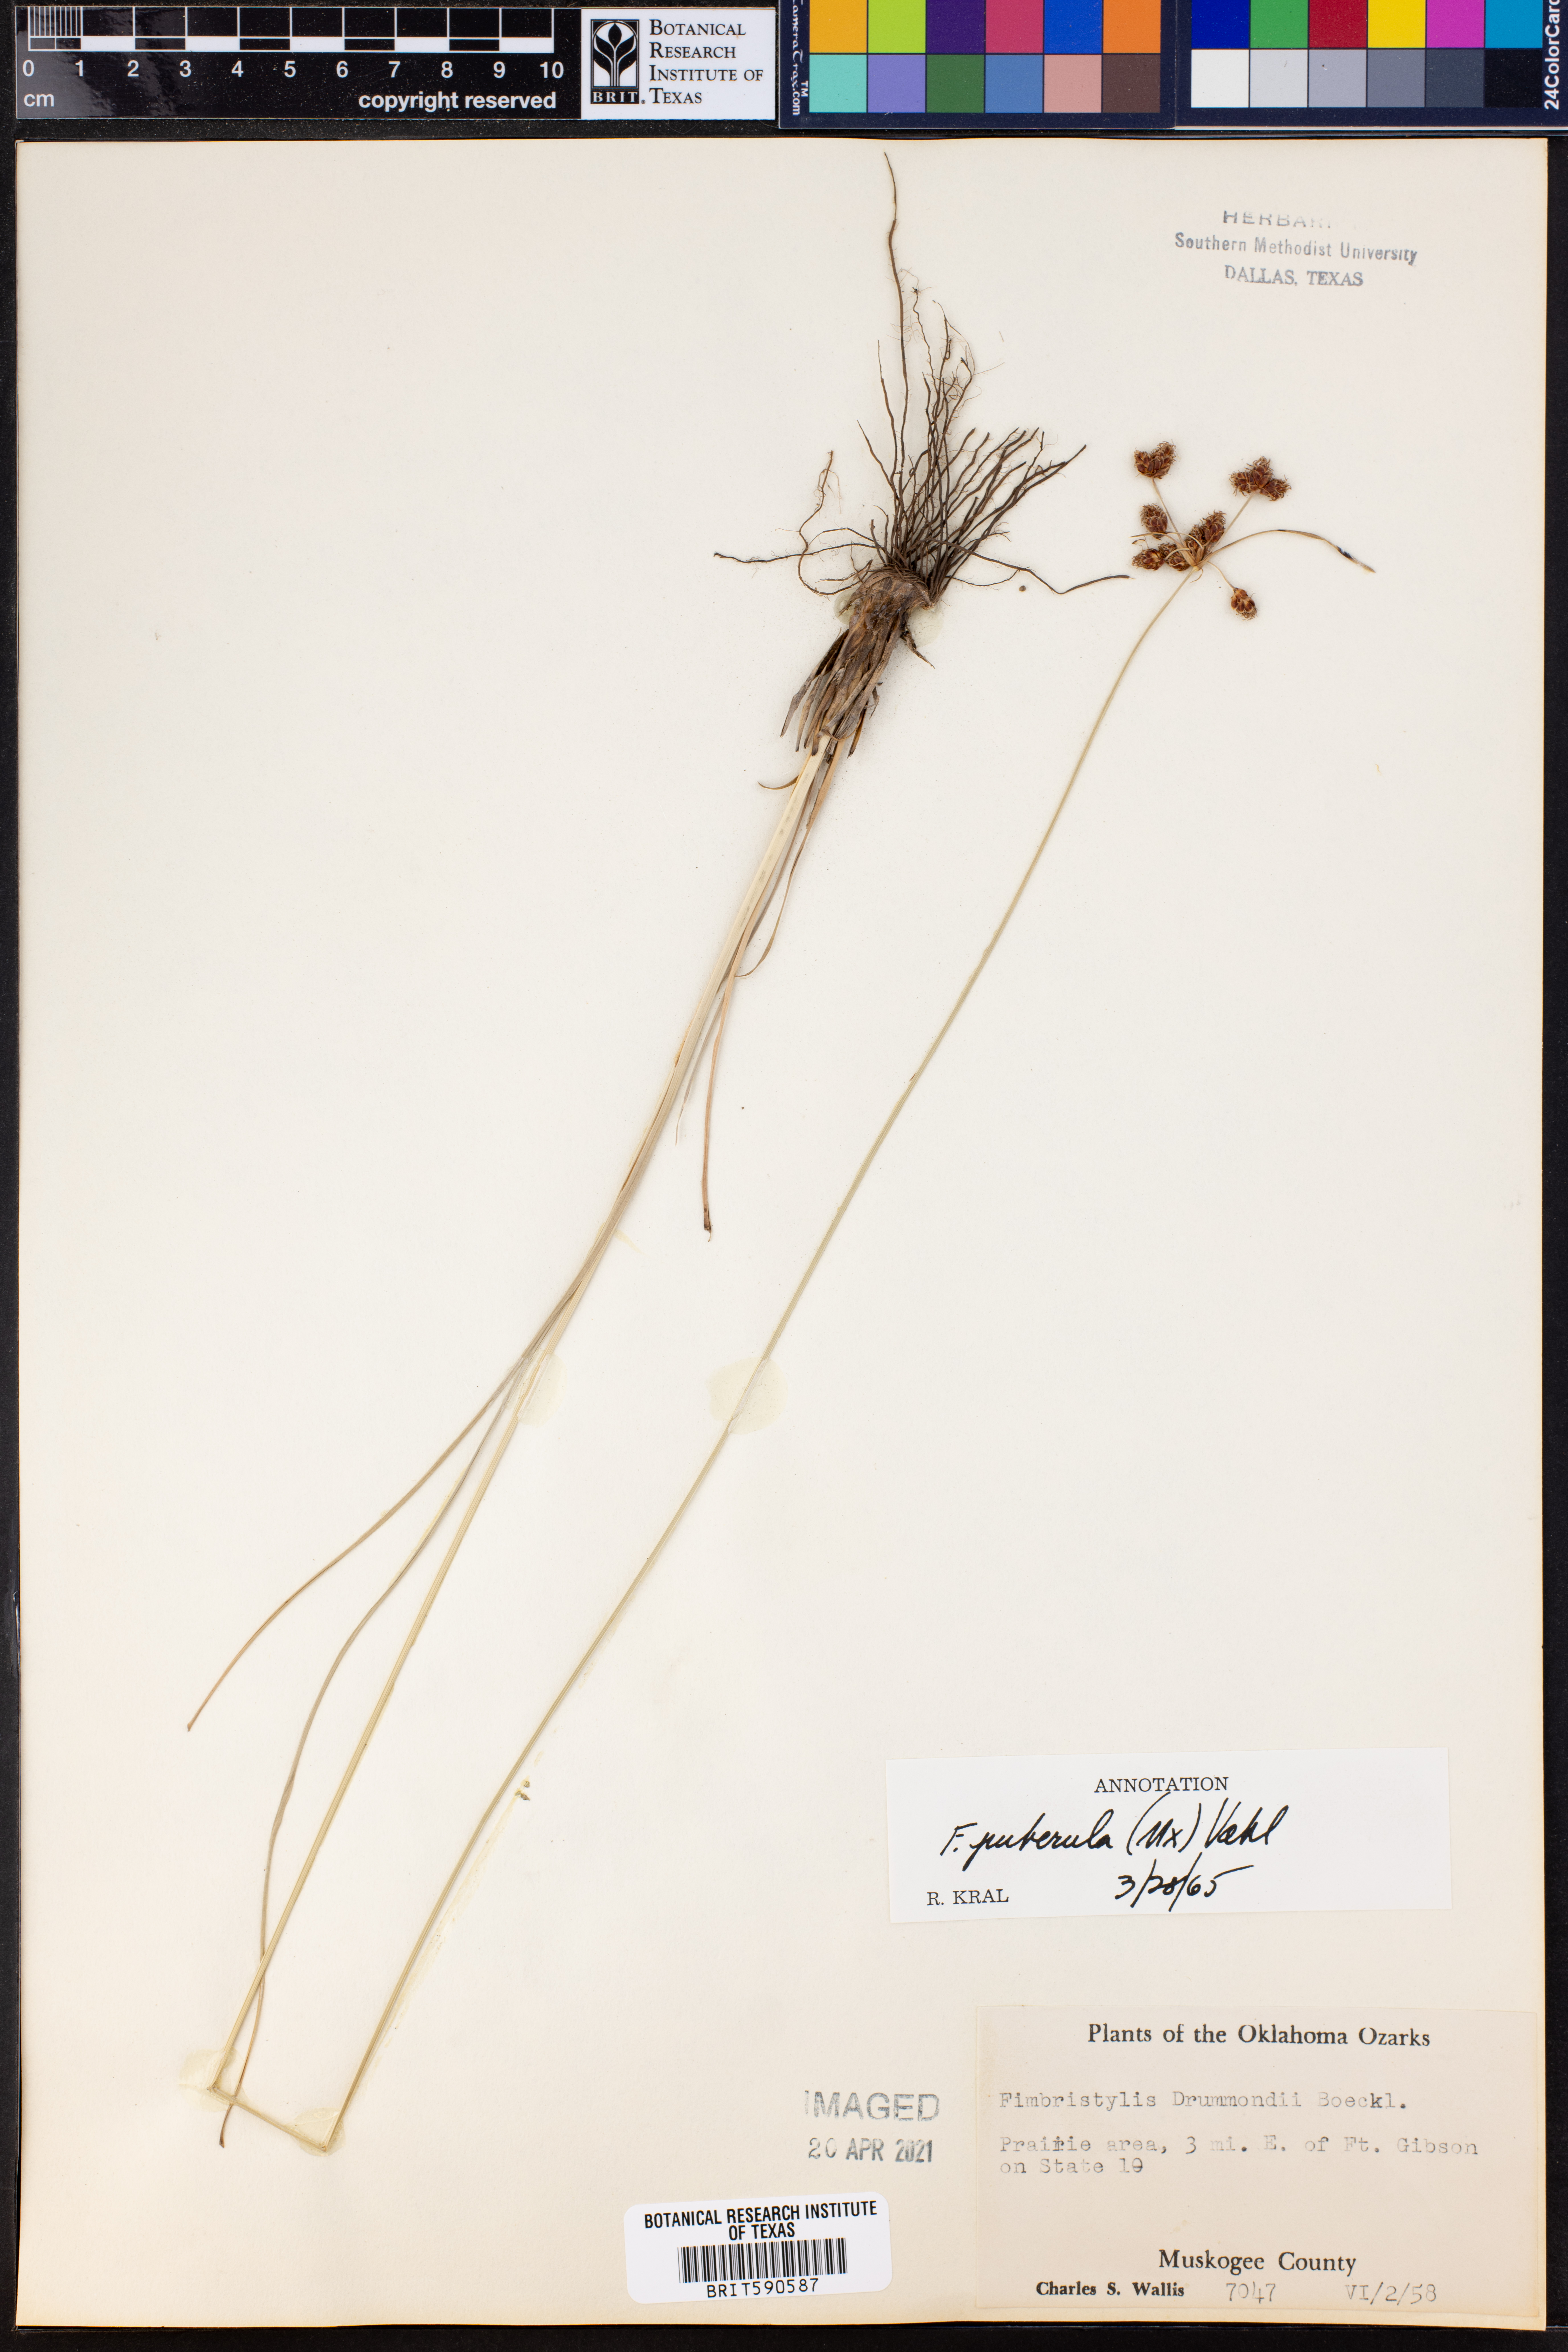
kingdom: Plantae
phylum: Tracheophyta
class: Liliopsida
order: Poales
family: Cyperaceae
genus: Fimbristylis
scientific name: Fimbristylis puberula
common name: Hairy fimbristylis
